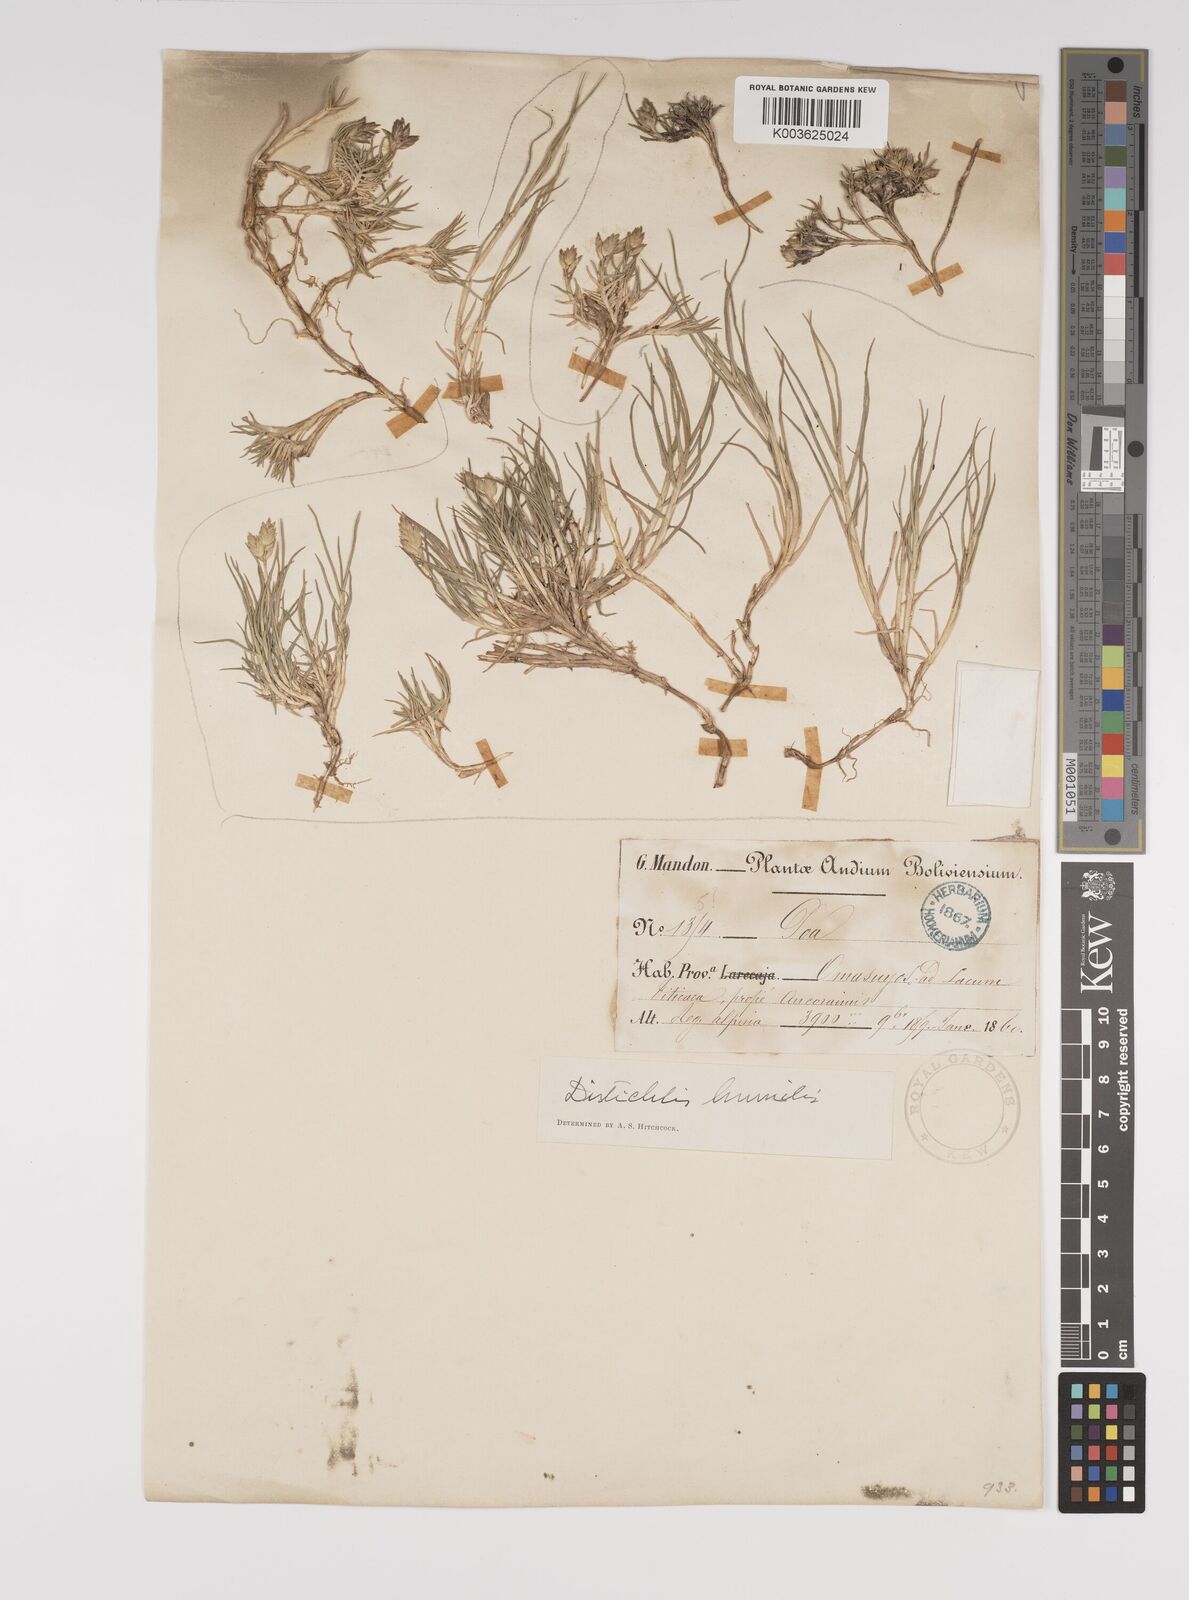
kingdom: Plantae
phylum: Tracheophyta
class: Liliopsida
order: Poales
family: Poaceae
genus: Distichlis
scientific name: Distichlis humilis
